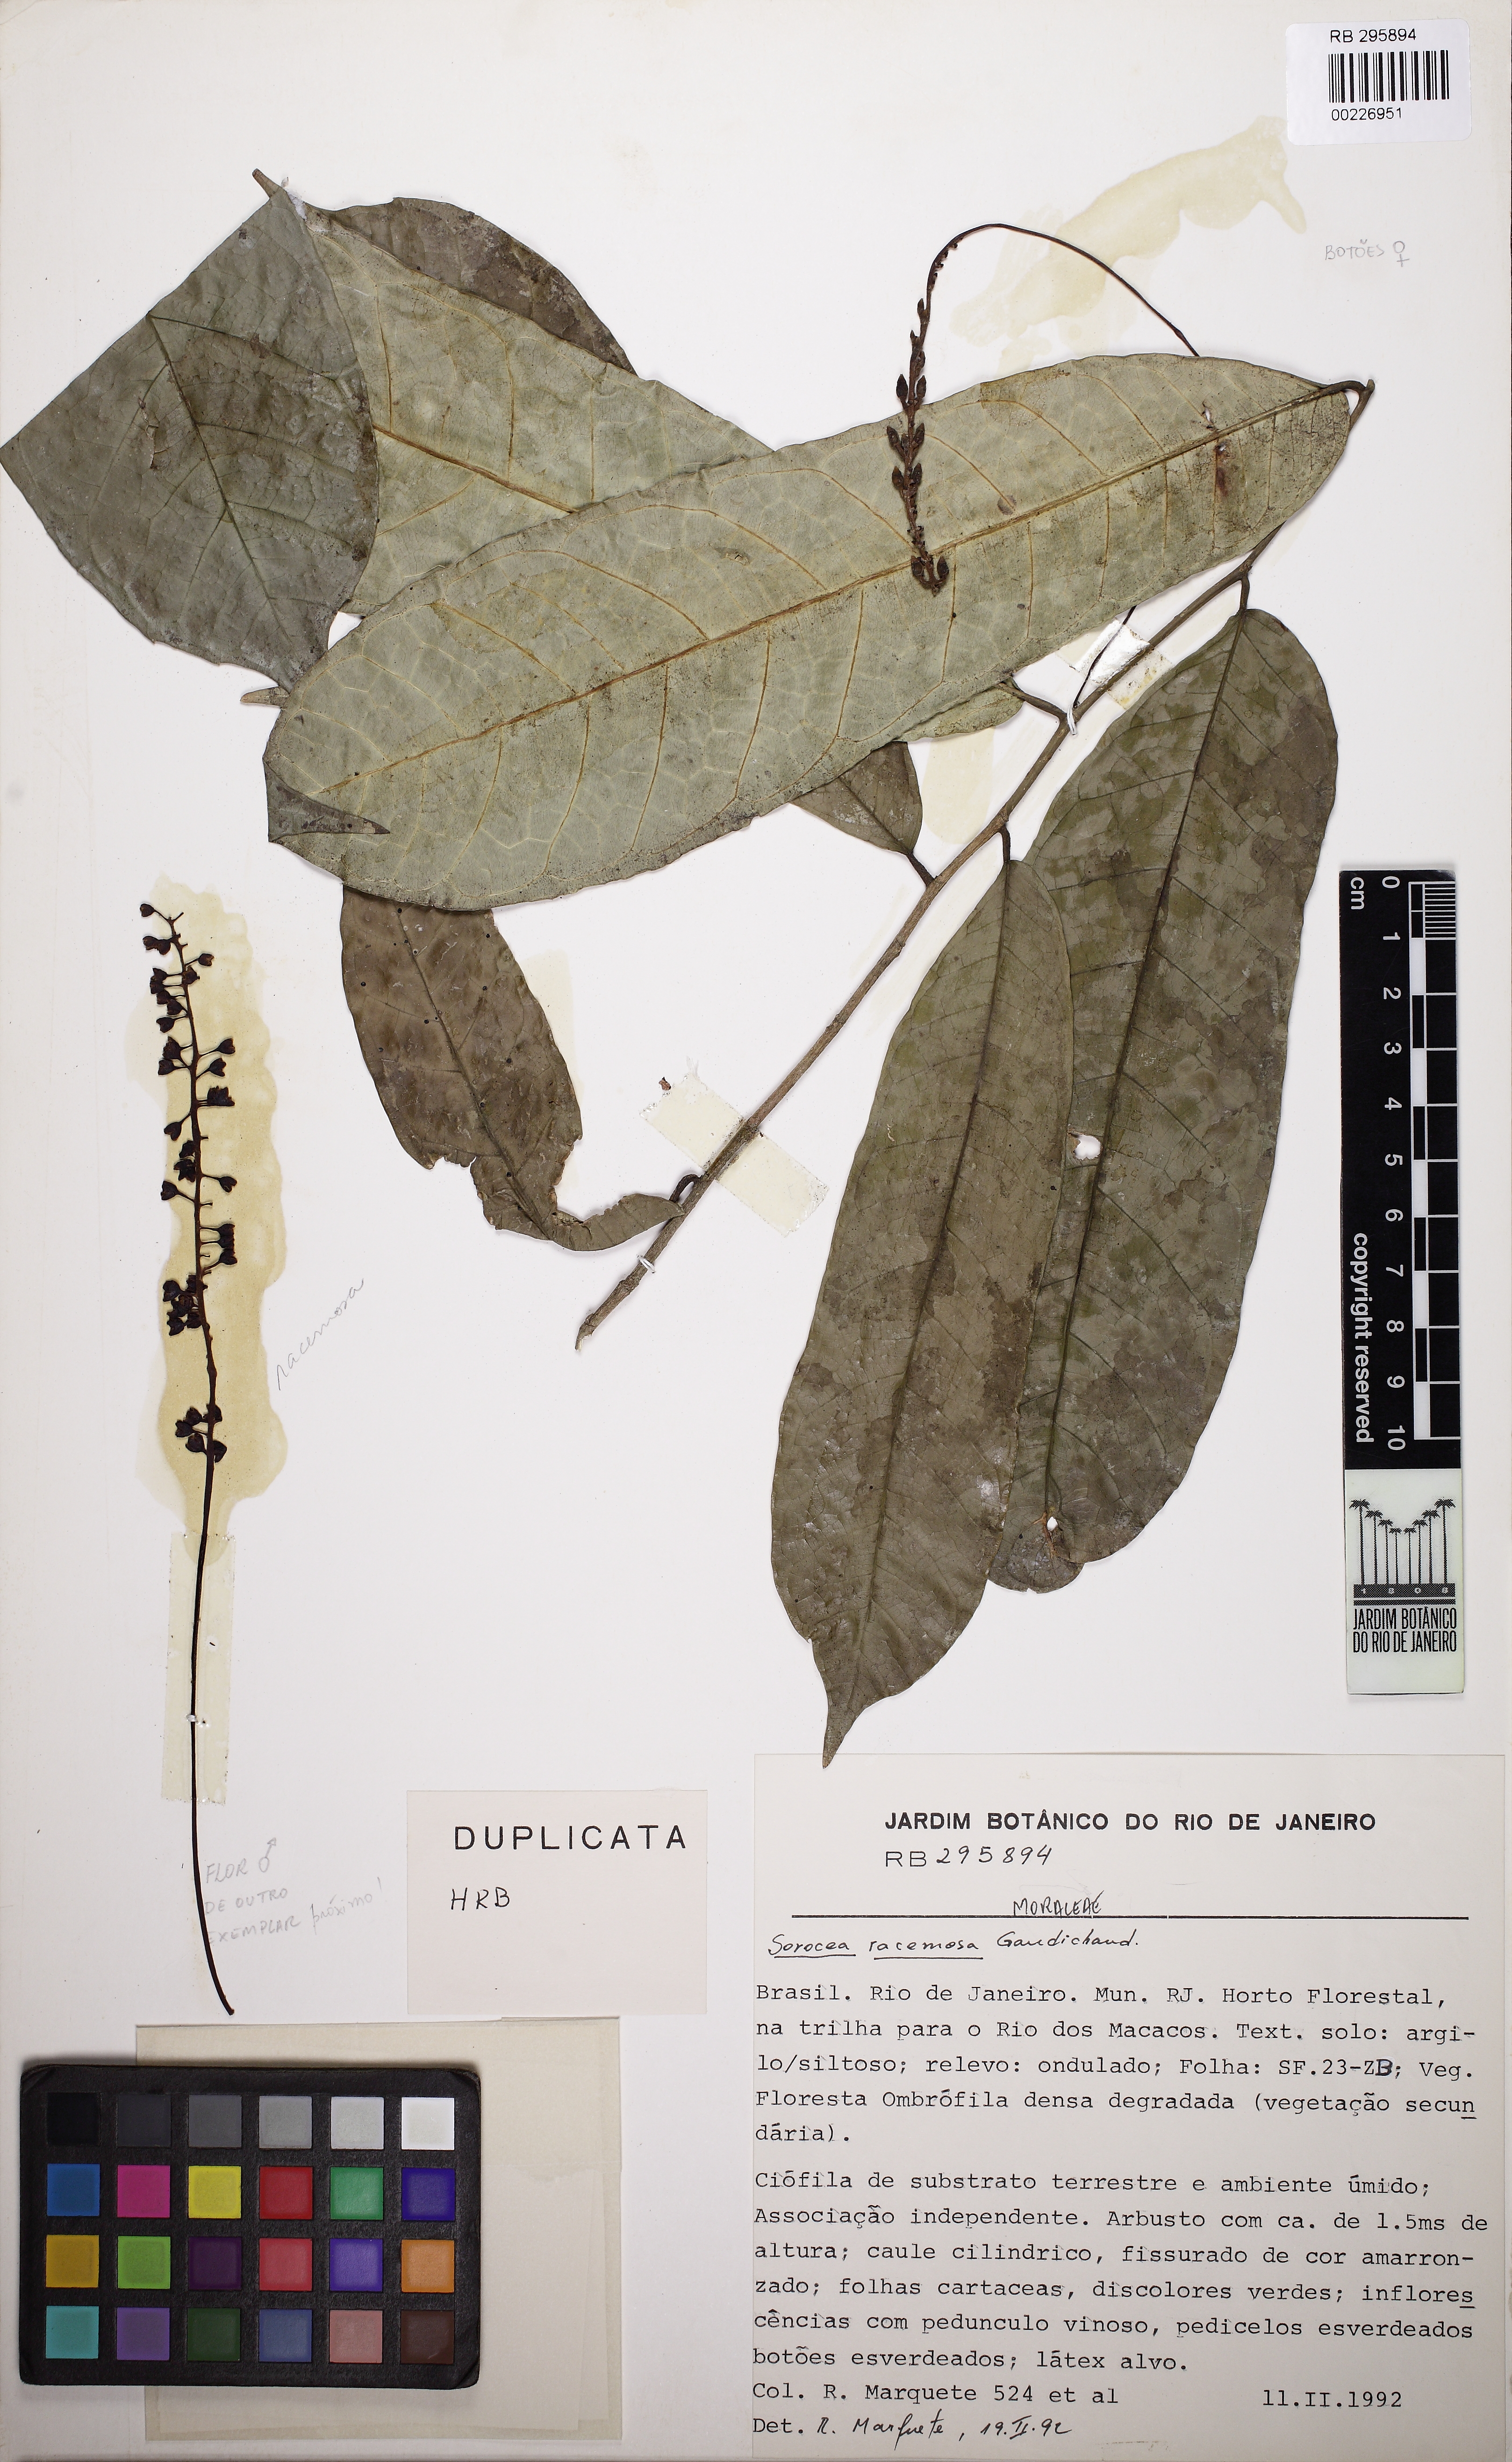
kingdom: Plantae
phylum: Tracheophyta
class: Magnoliopsida
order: Rosales
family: Moraceae
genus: Sorocea
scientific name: Sorocea hilarii
